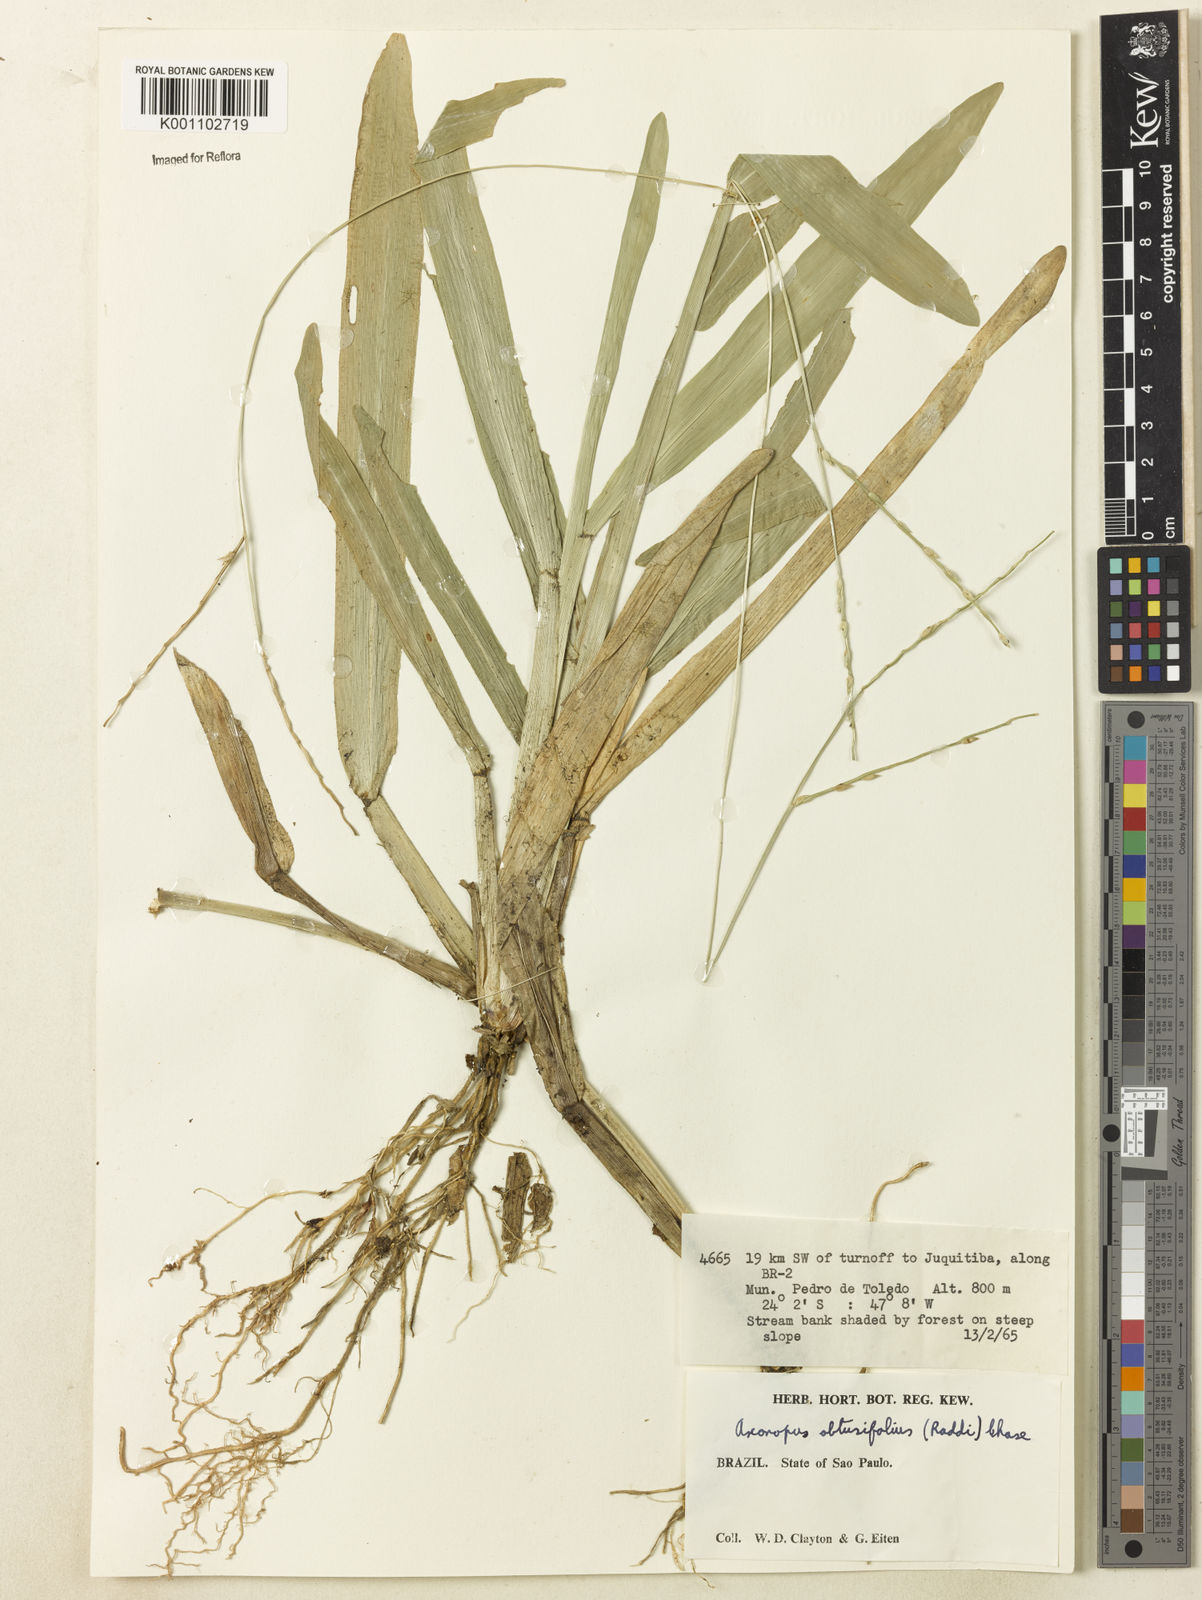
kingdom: Plantae
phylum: Tracheophyta
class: Liliopsida
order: Poales
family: Poaceae
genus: Axonopus
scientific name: Axonopus furcatus
